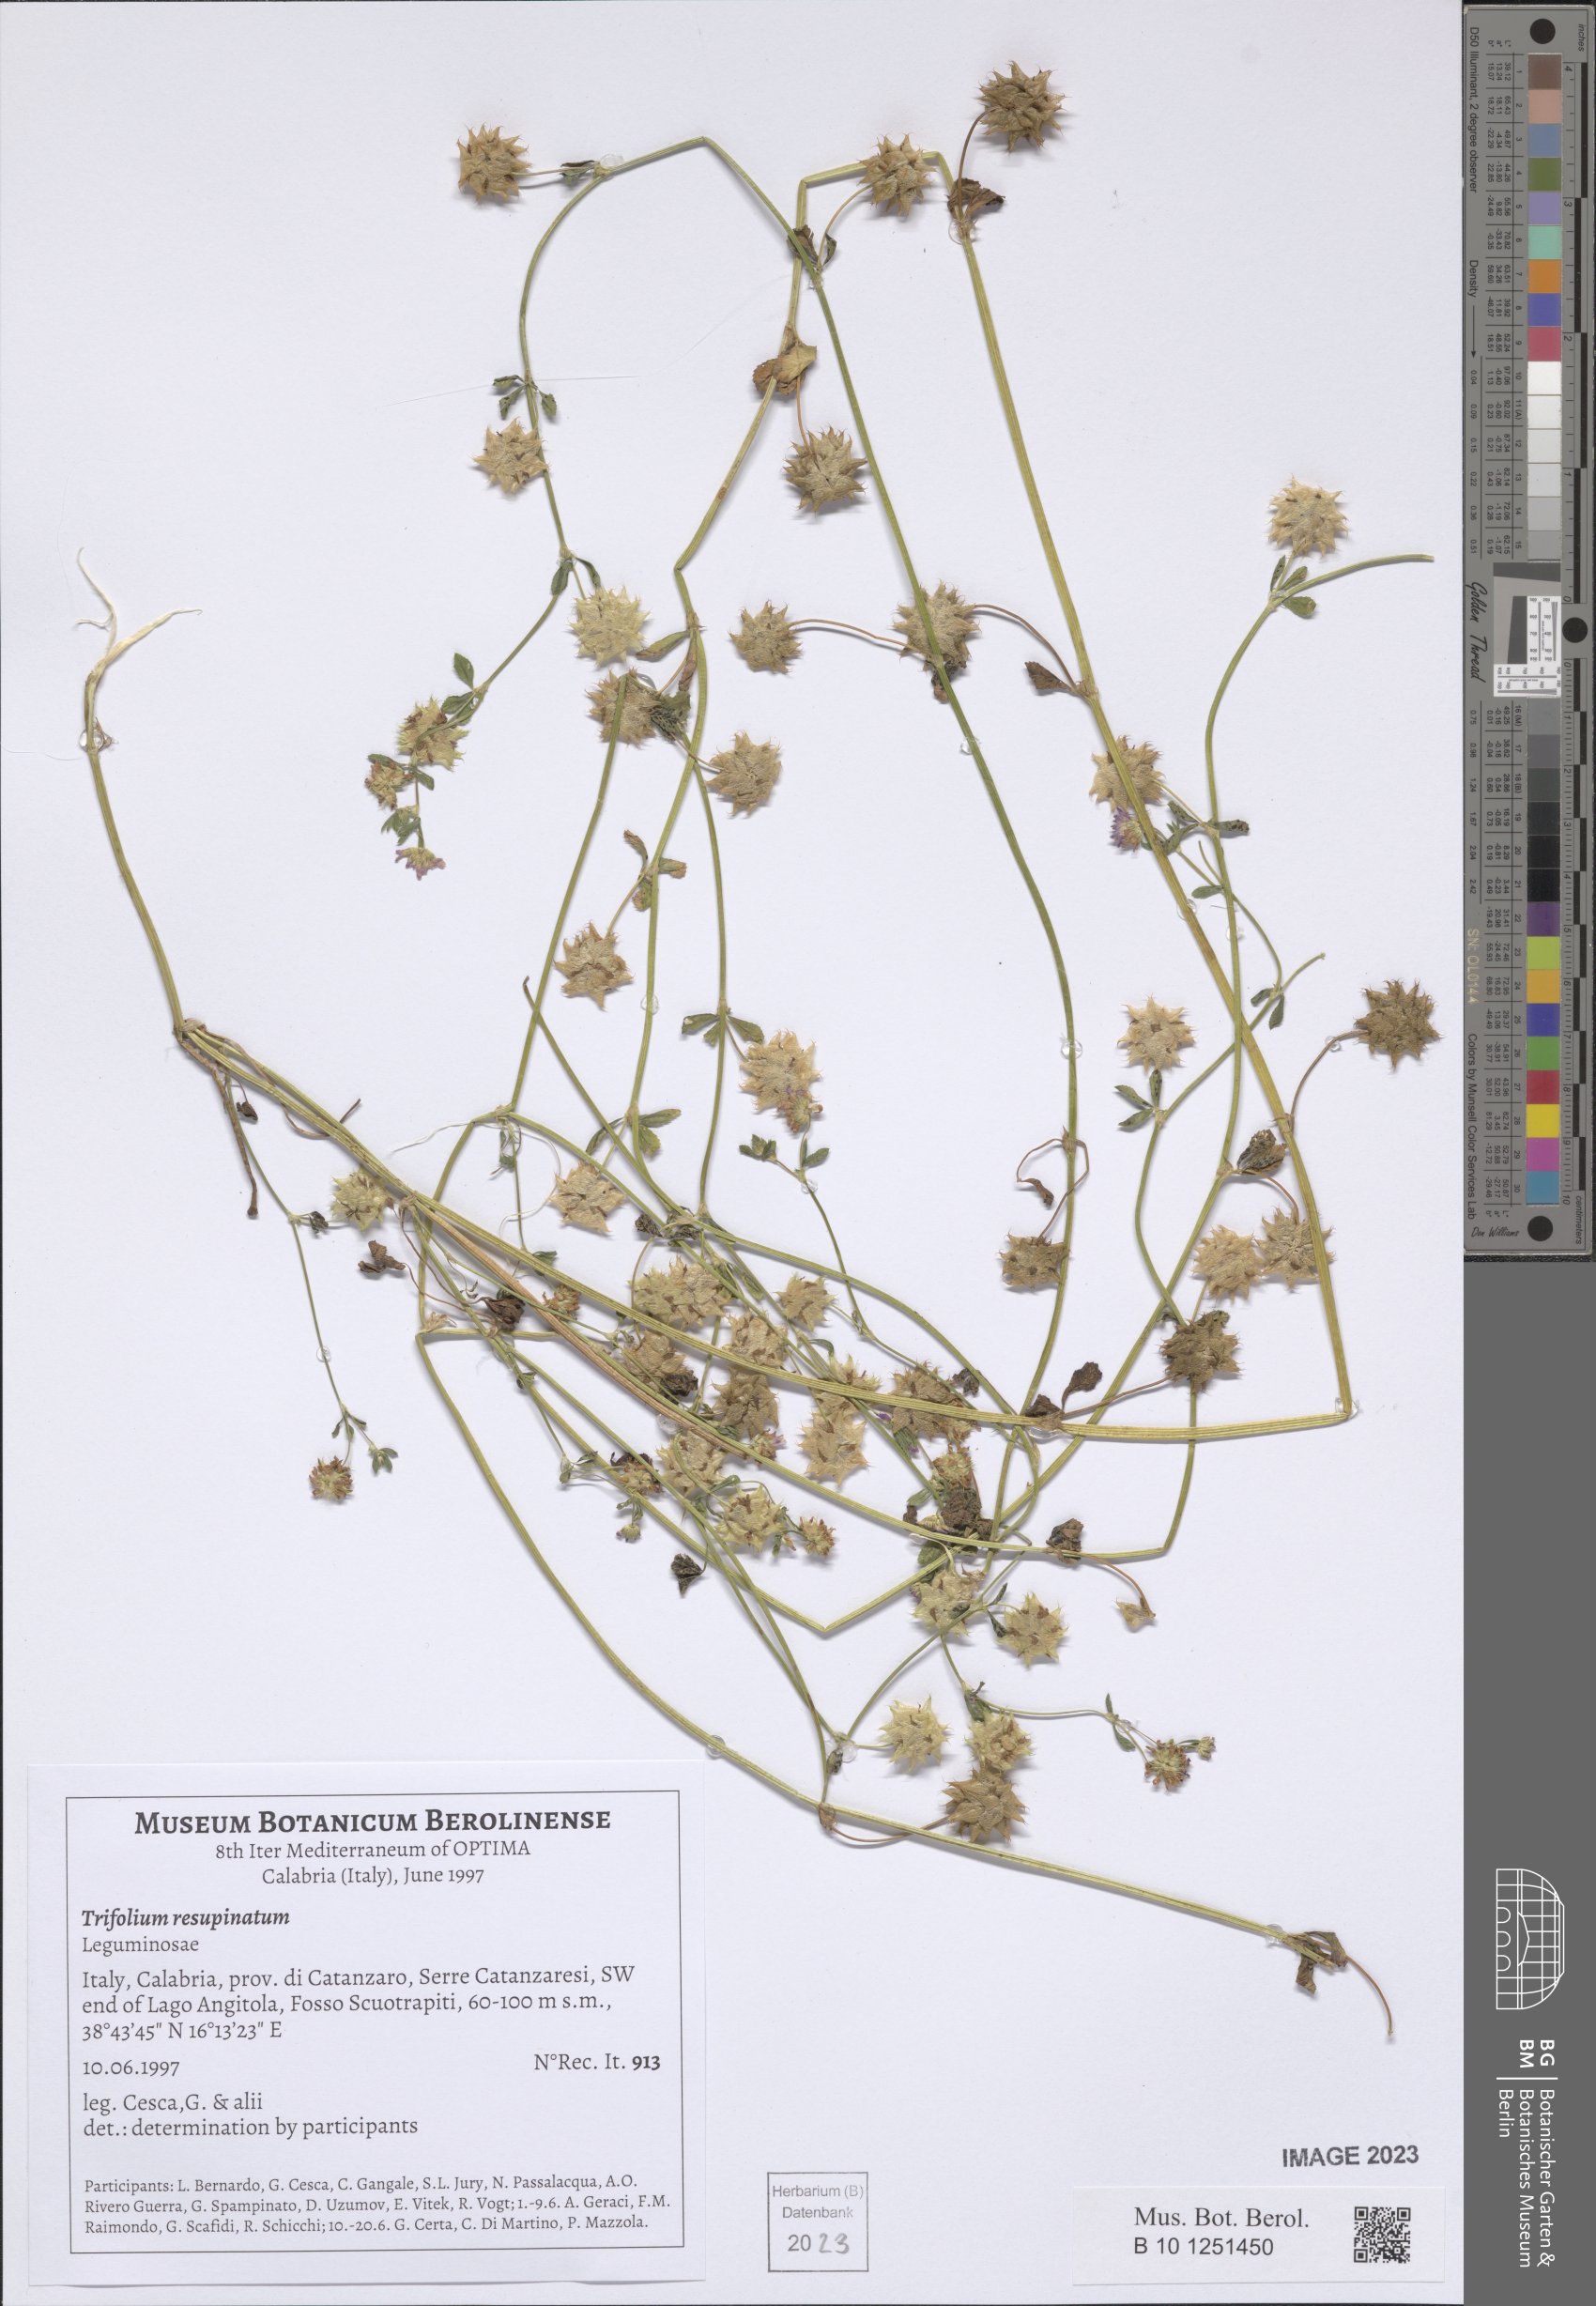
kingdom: Plantae
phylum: Tracheophyta
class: Magnoliopsida
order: Fabales
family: Fabaceae
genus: Trifolium
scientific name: Trifolium resupinatum
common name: Reversed clover
